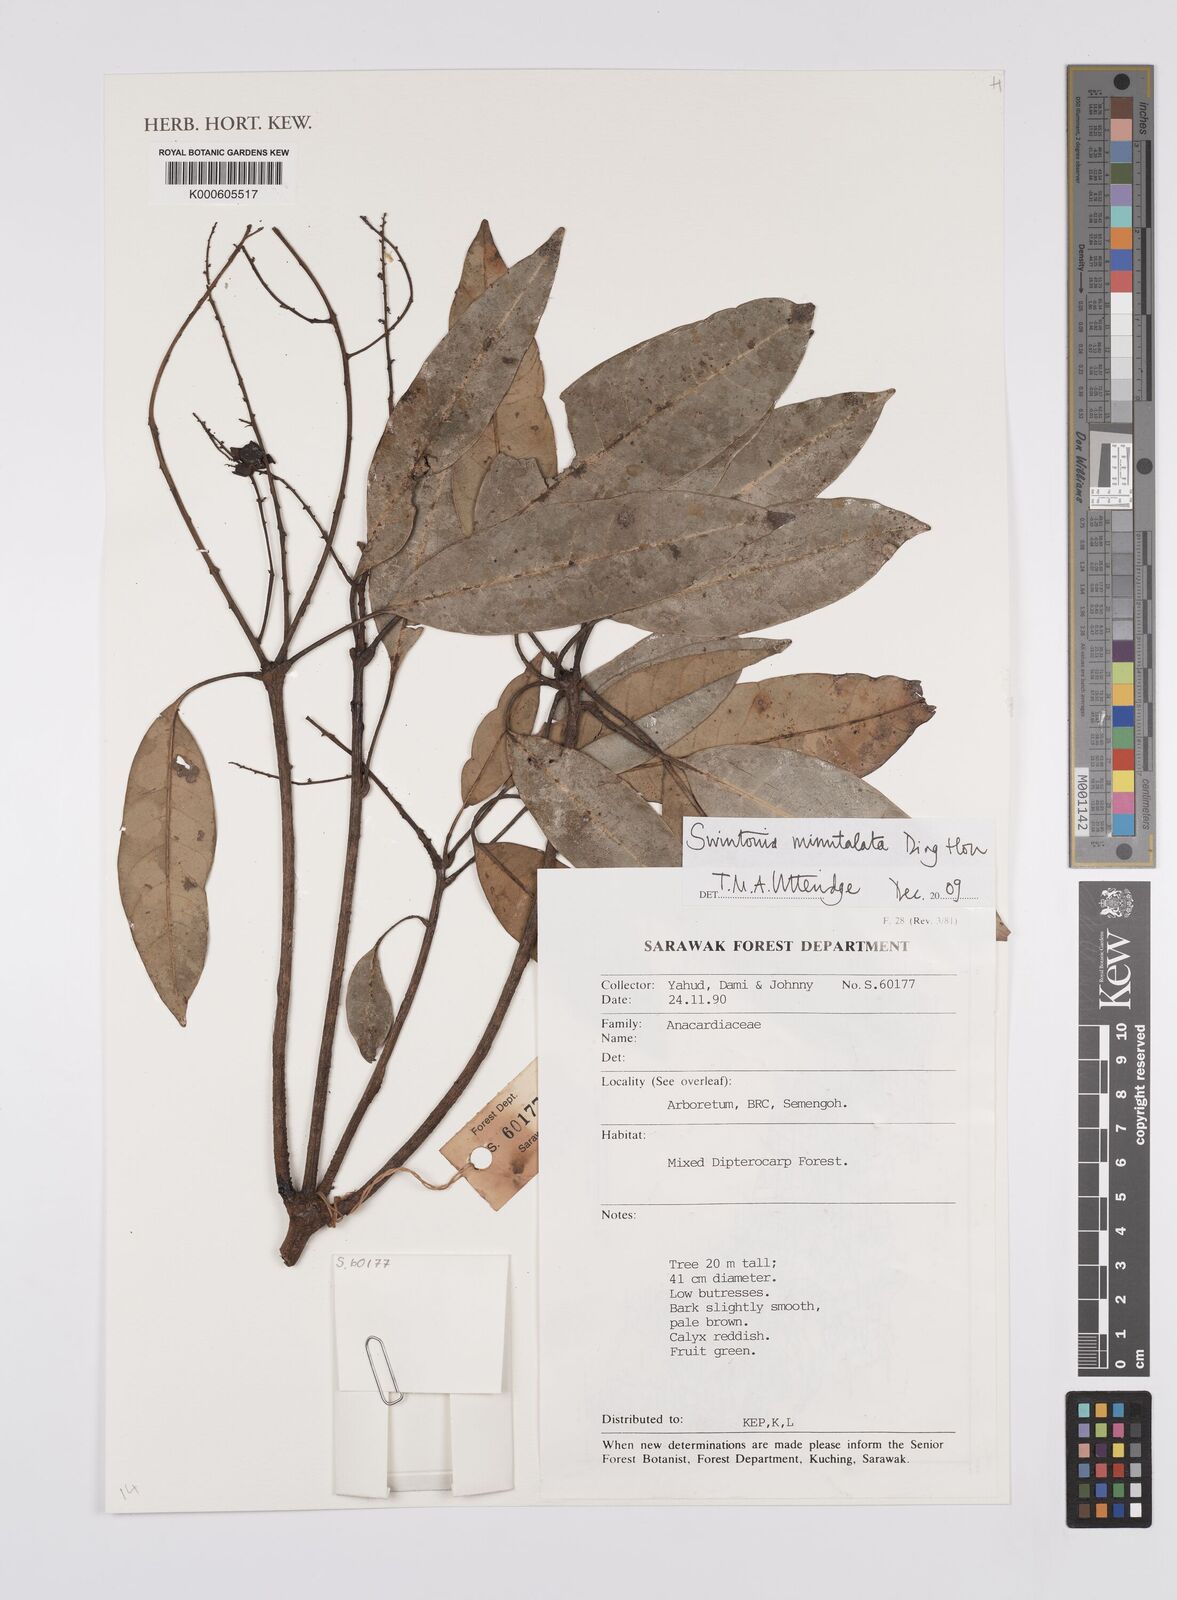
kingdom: Plantae
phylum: Tracheophyta
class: Magnoliopsida
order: Sapindales
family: Anacardiaceae
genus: Swintonia
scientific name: Swintonia minutalata
